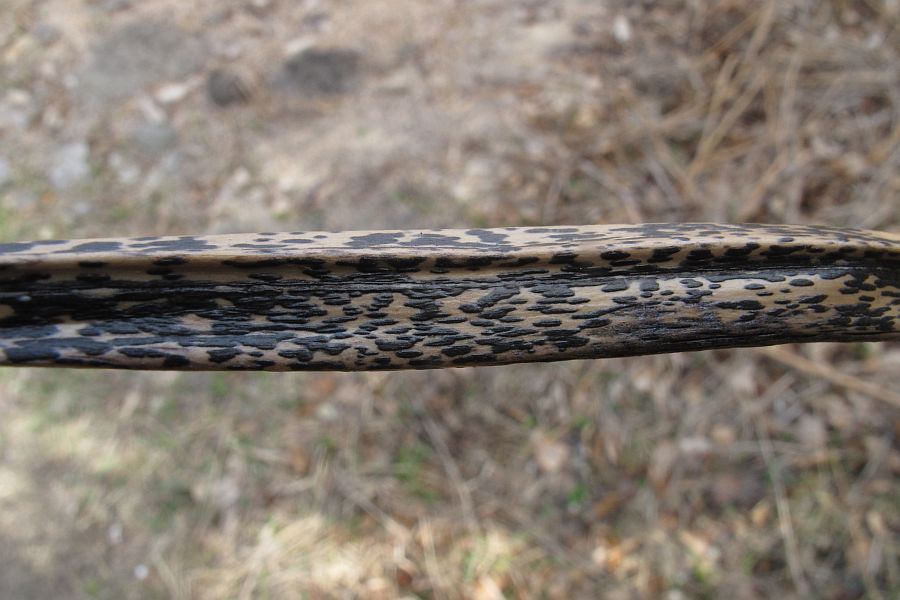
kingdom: Fungi
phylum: Ascomycota
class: Dothideomycetes
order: Pleosporales
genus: Rhopographus
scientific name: Rhopographus filicinus
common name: Bracken map
